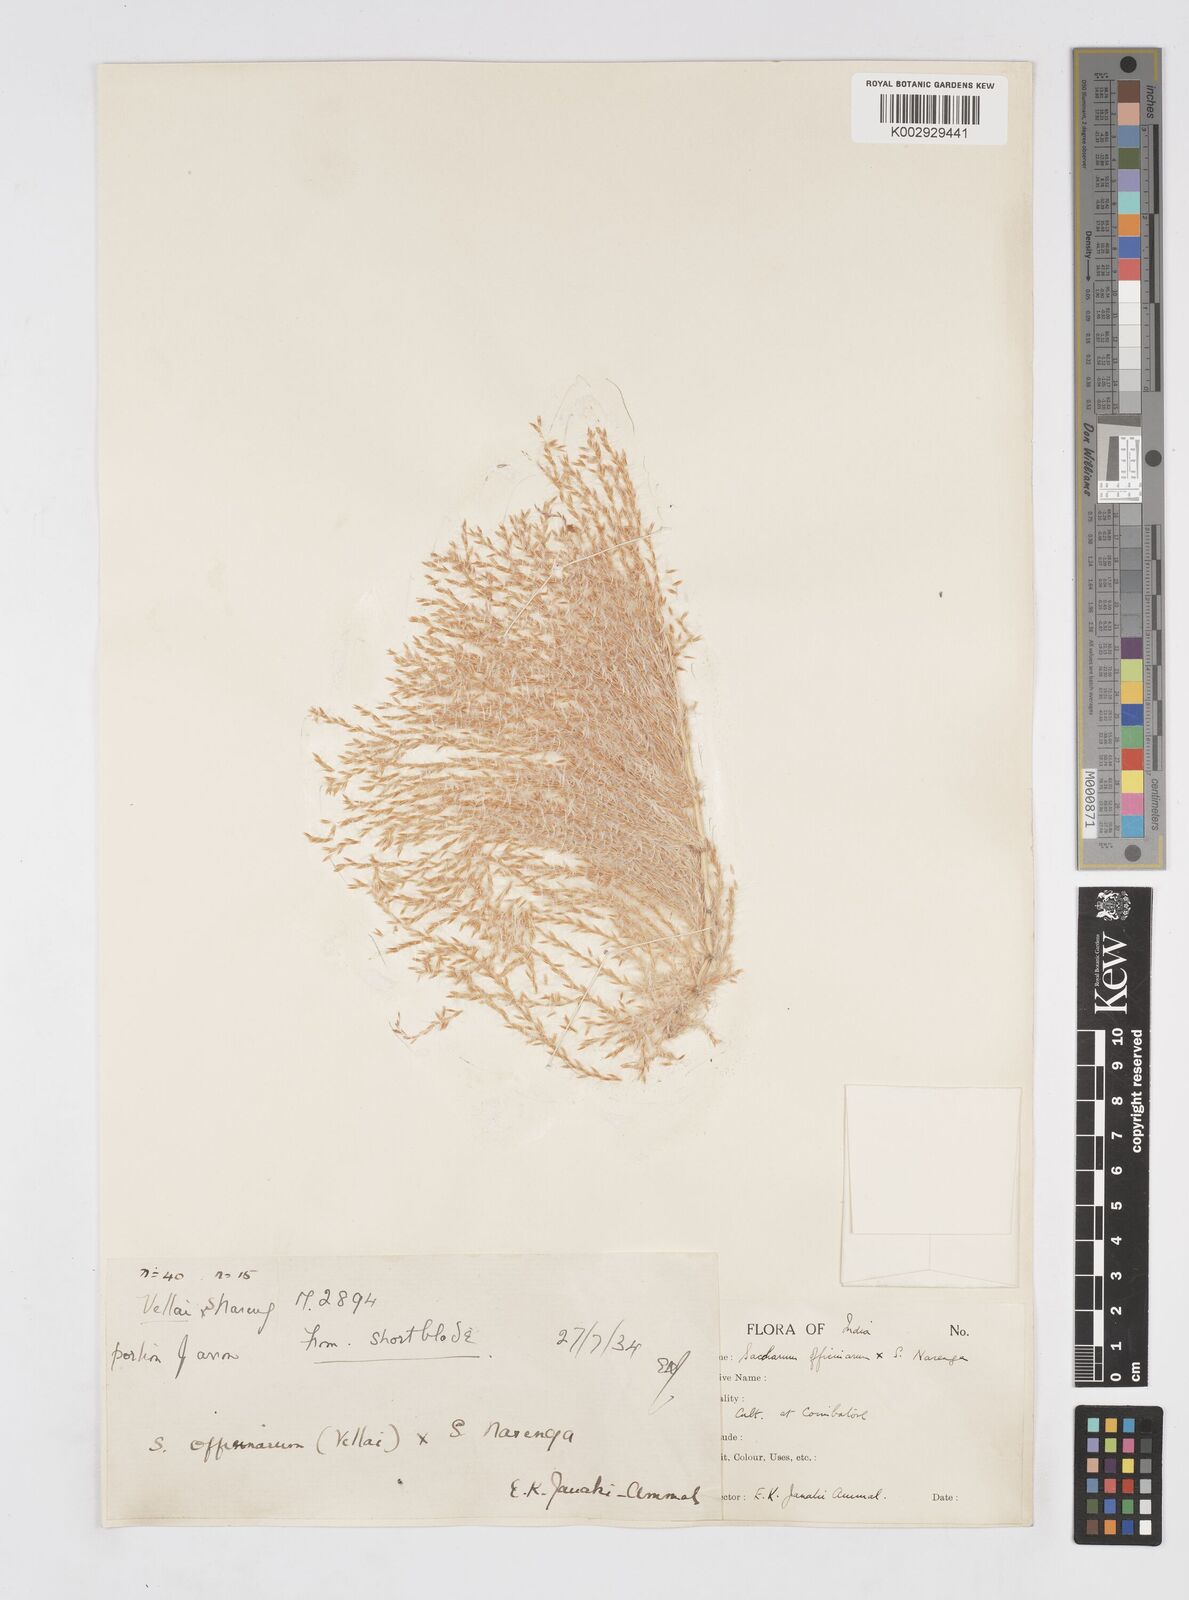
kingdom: Plantae
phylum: Tracheophyta
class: Liliopsida
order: Poales
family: Poaceae
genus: Saccharum
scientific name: Saccharum officinarum
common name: Sugarcane
